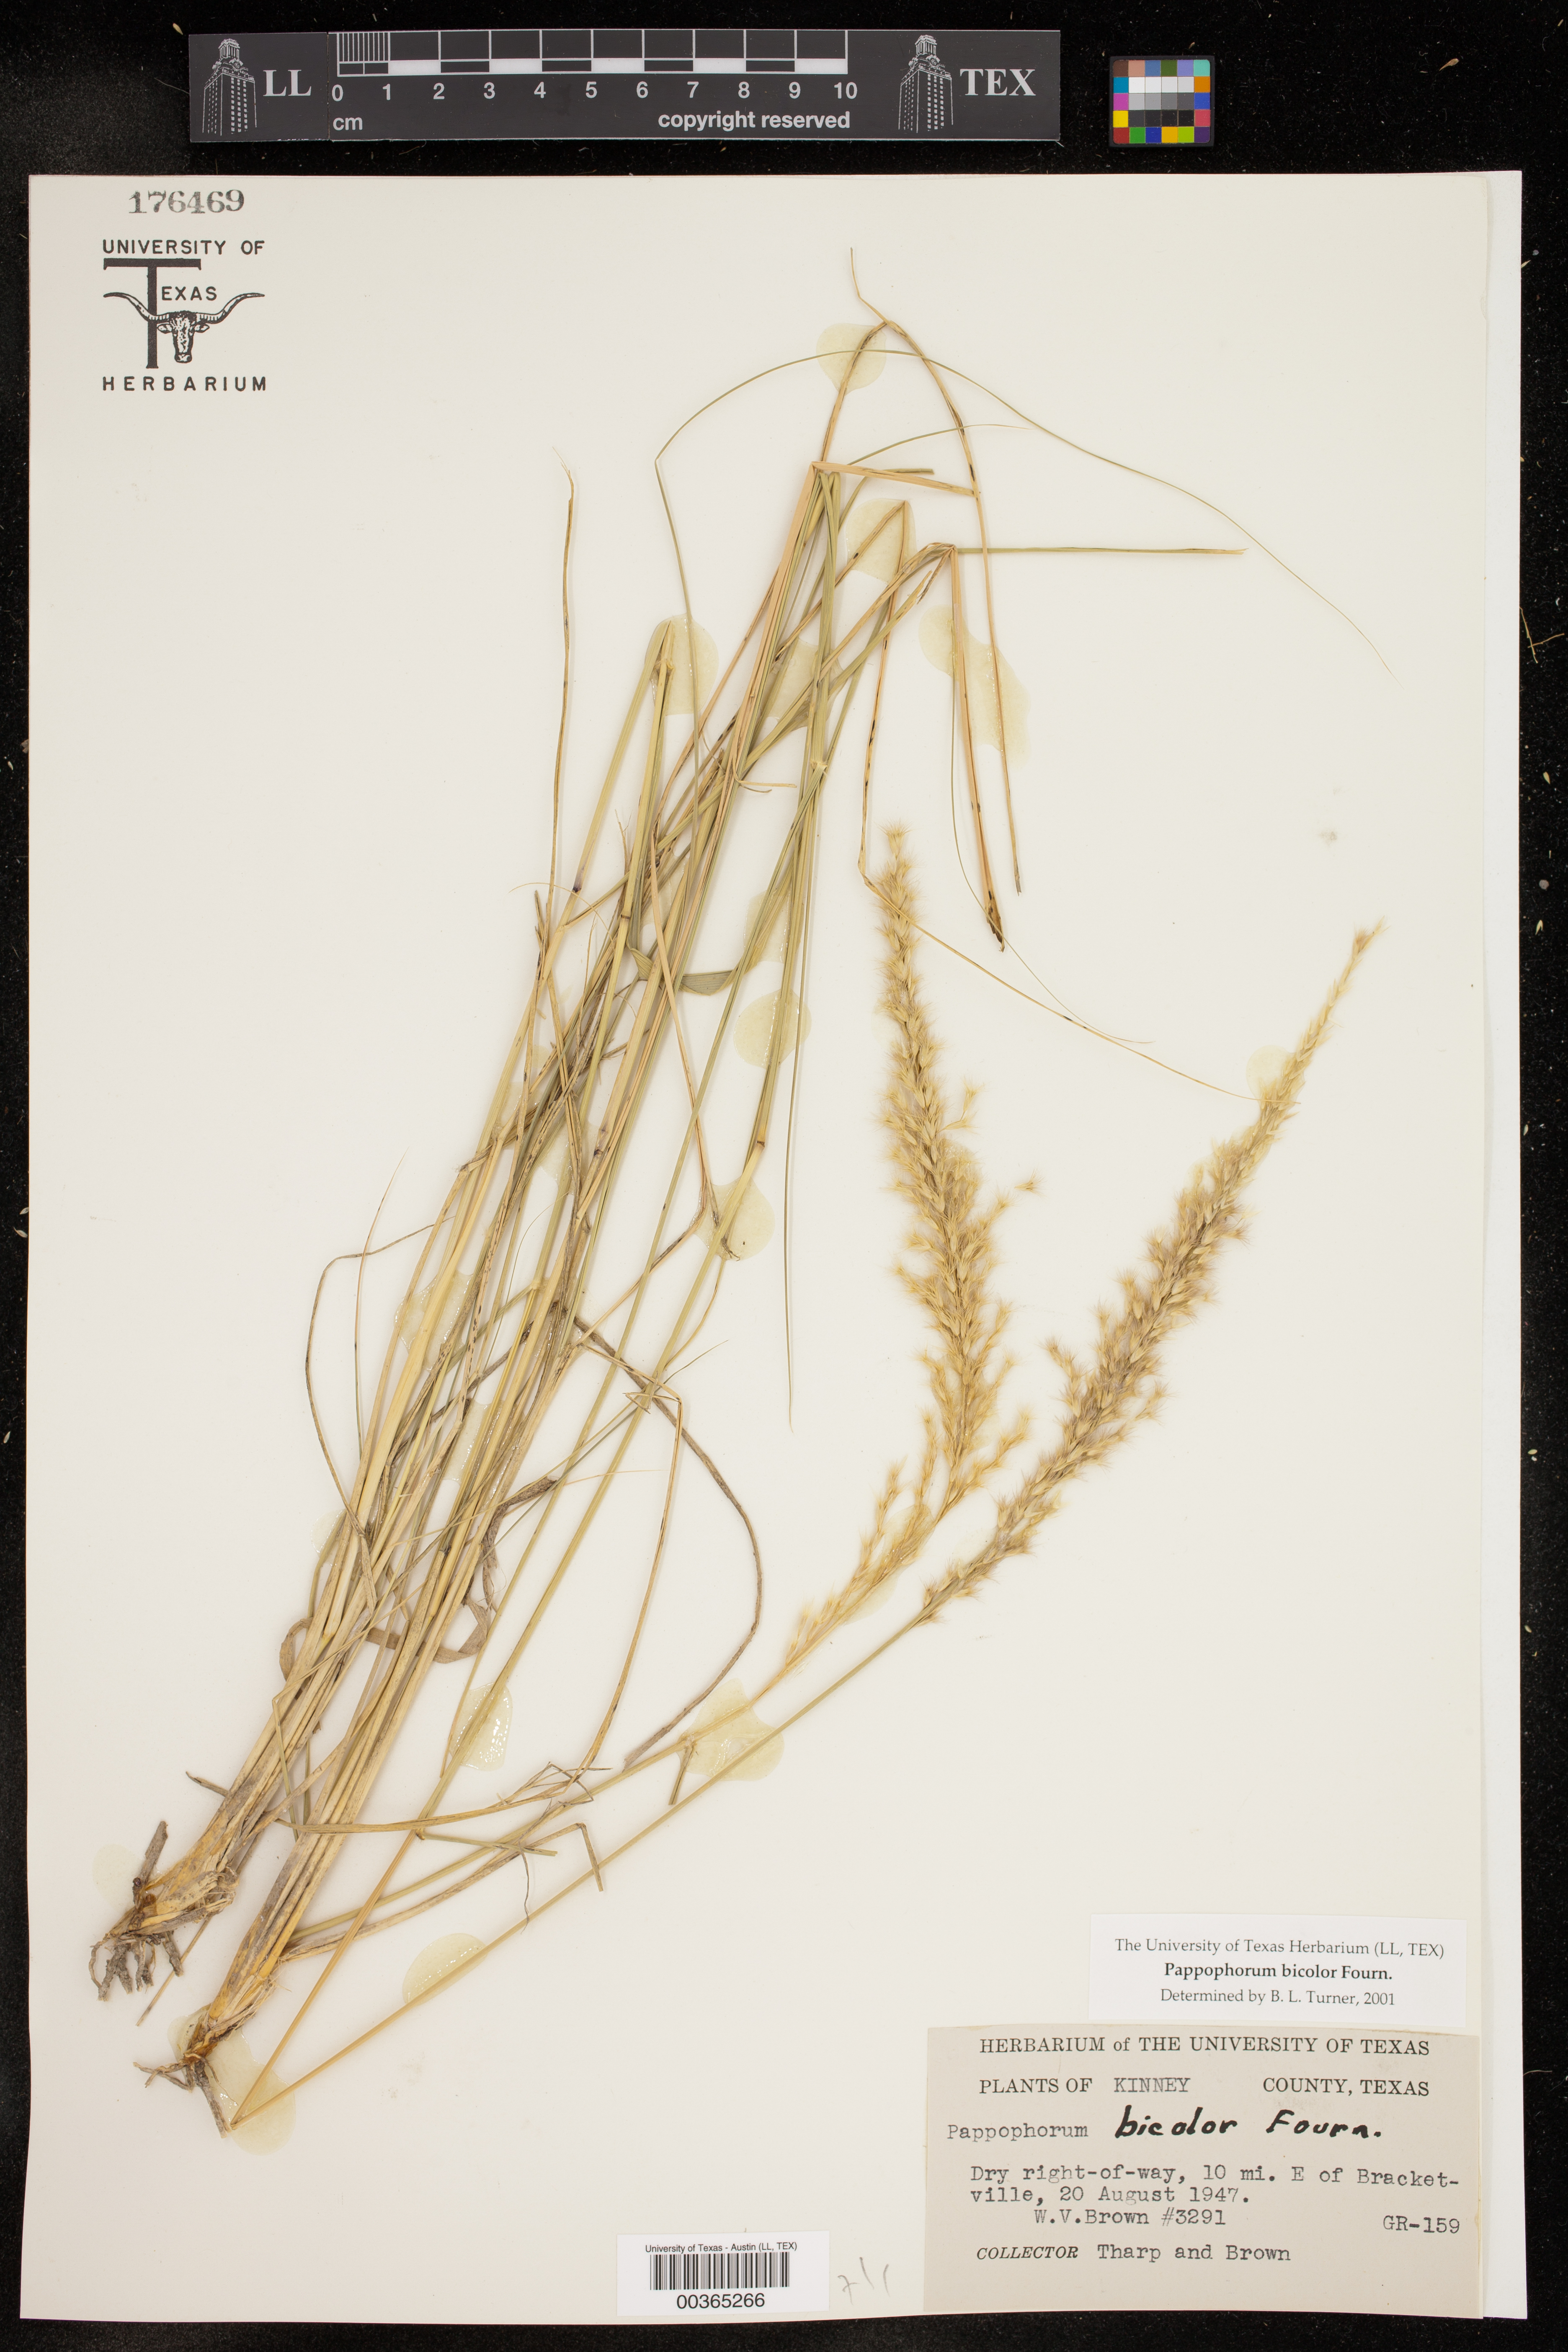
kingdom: Plantae
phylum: Tracheophyta
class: Liliopsida
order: Poales
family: Poaceae
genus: Pappophorum
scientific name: Pappophorum bicolor
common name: Pink pappus grass
